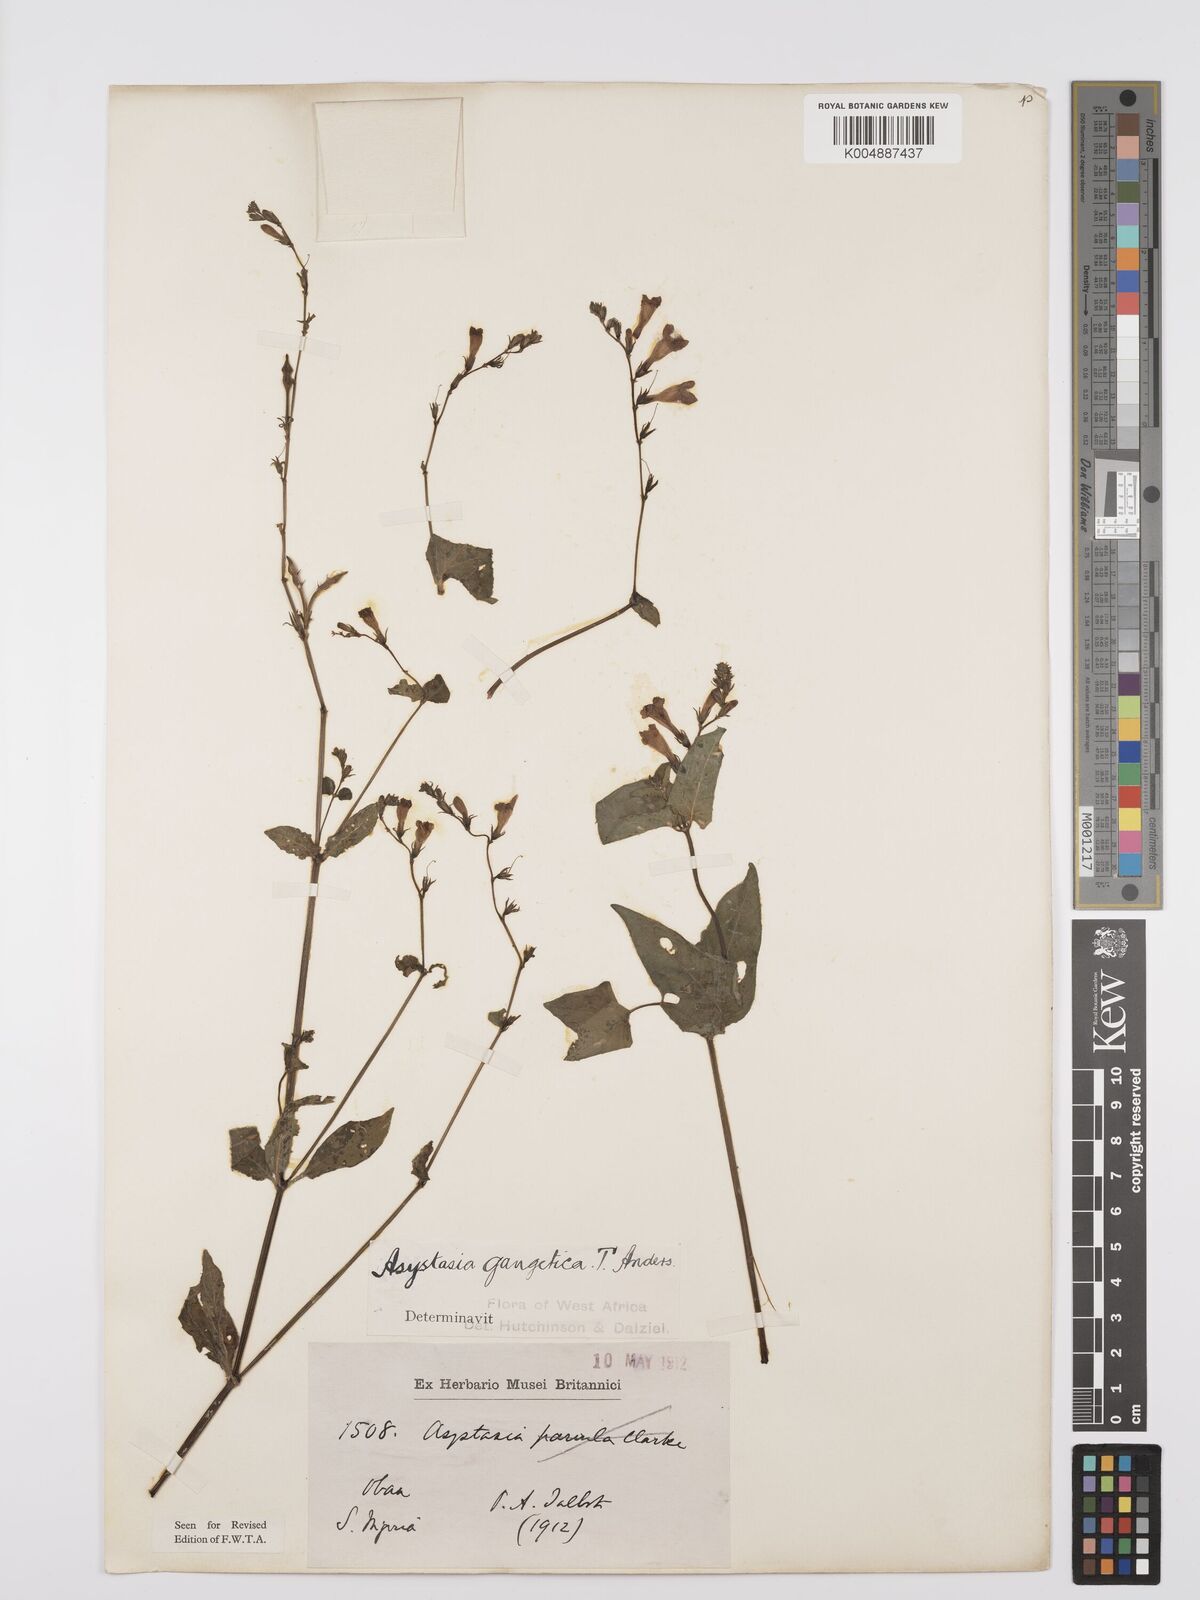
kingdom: Plantae
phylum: Tracheophyta
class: Magnoliopsida
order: Lamiales
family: Acanthaceae
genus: Asystasia
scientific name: Asystasia gangetica
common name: Chinese violet
